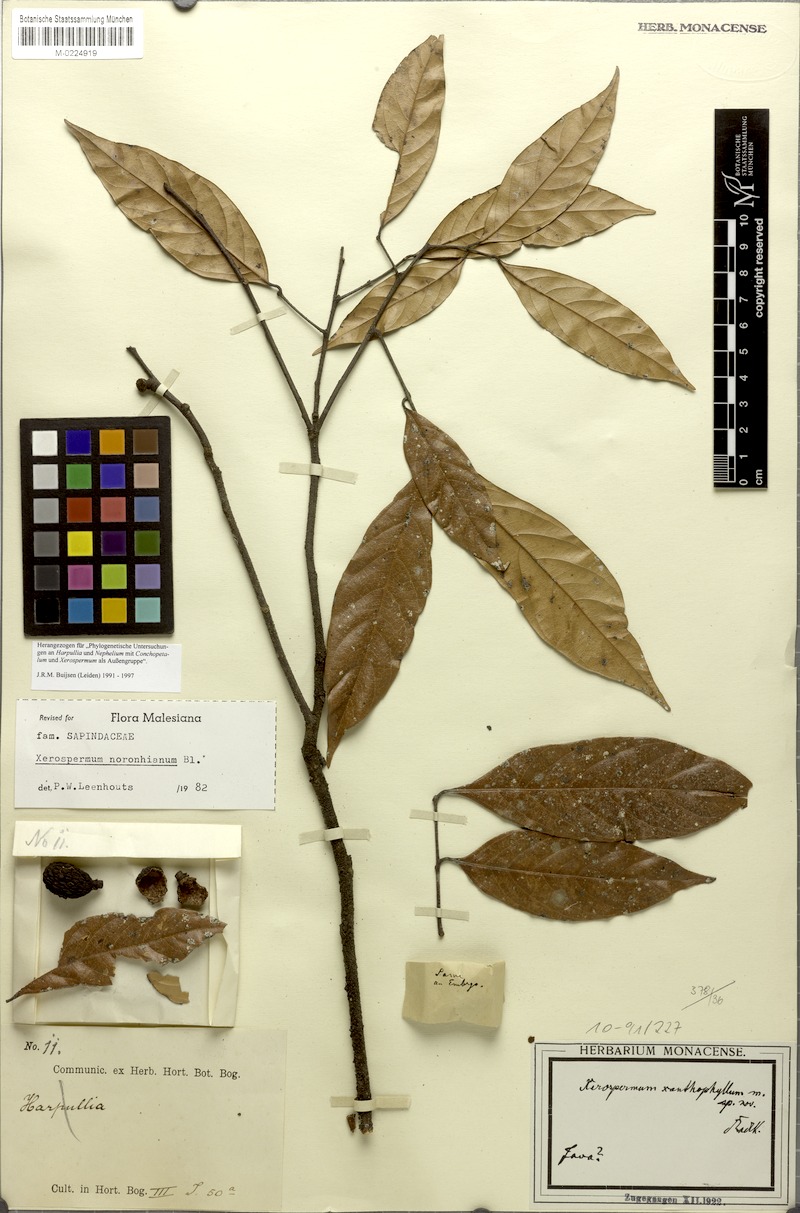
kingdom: Plantae
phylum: Tracheophyta
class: Magnoliopsida
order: Sapindales
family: Sapindaceae
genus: Xerospermum
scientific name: Xerospermum noronhianum
